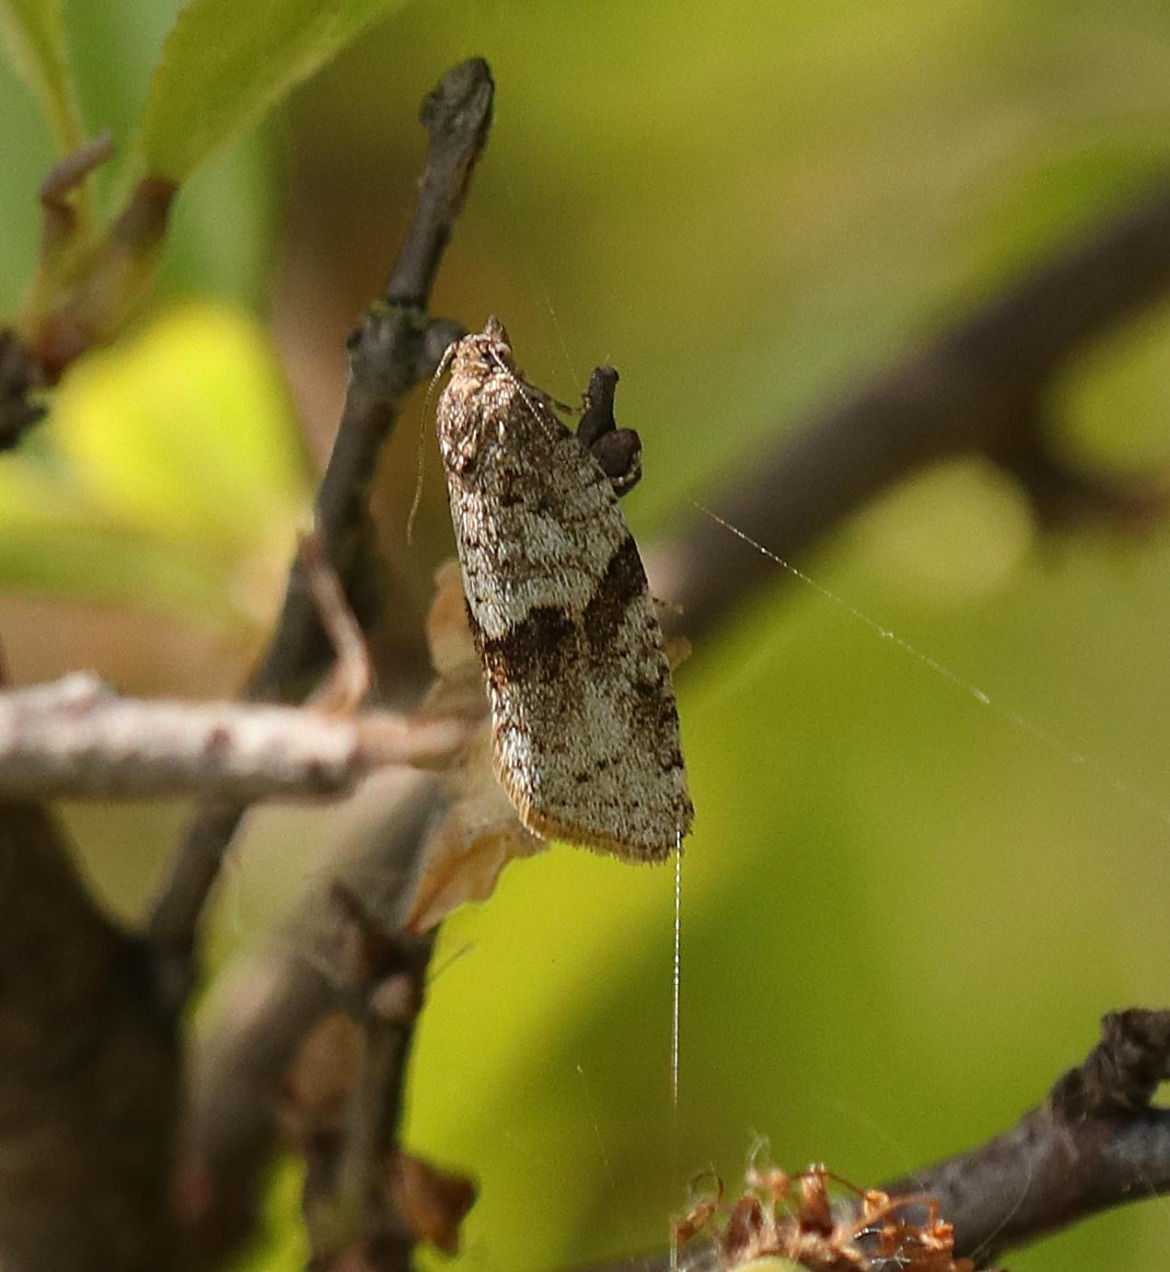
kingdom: Animalia
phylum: Arthropoda
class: Insecta
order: Lepidoptera
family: Tortricidae
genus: Syndemis
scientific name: Syndemis musculana
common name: Høstvikler
